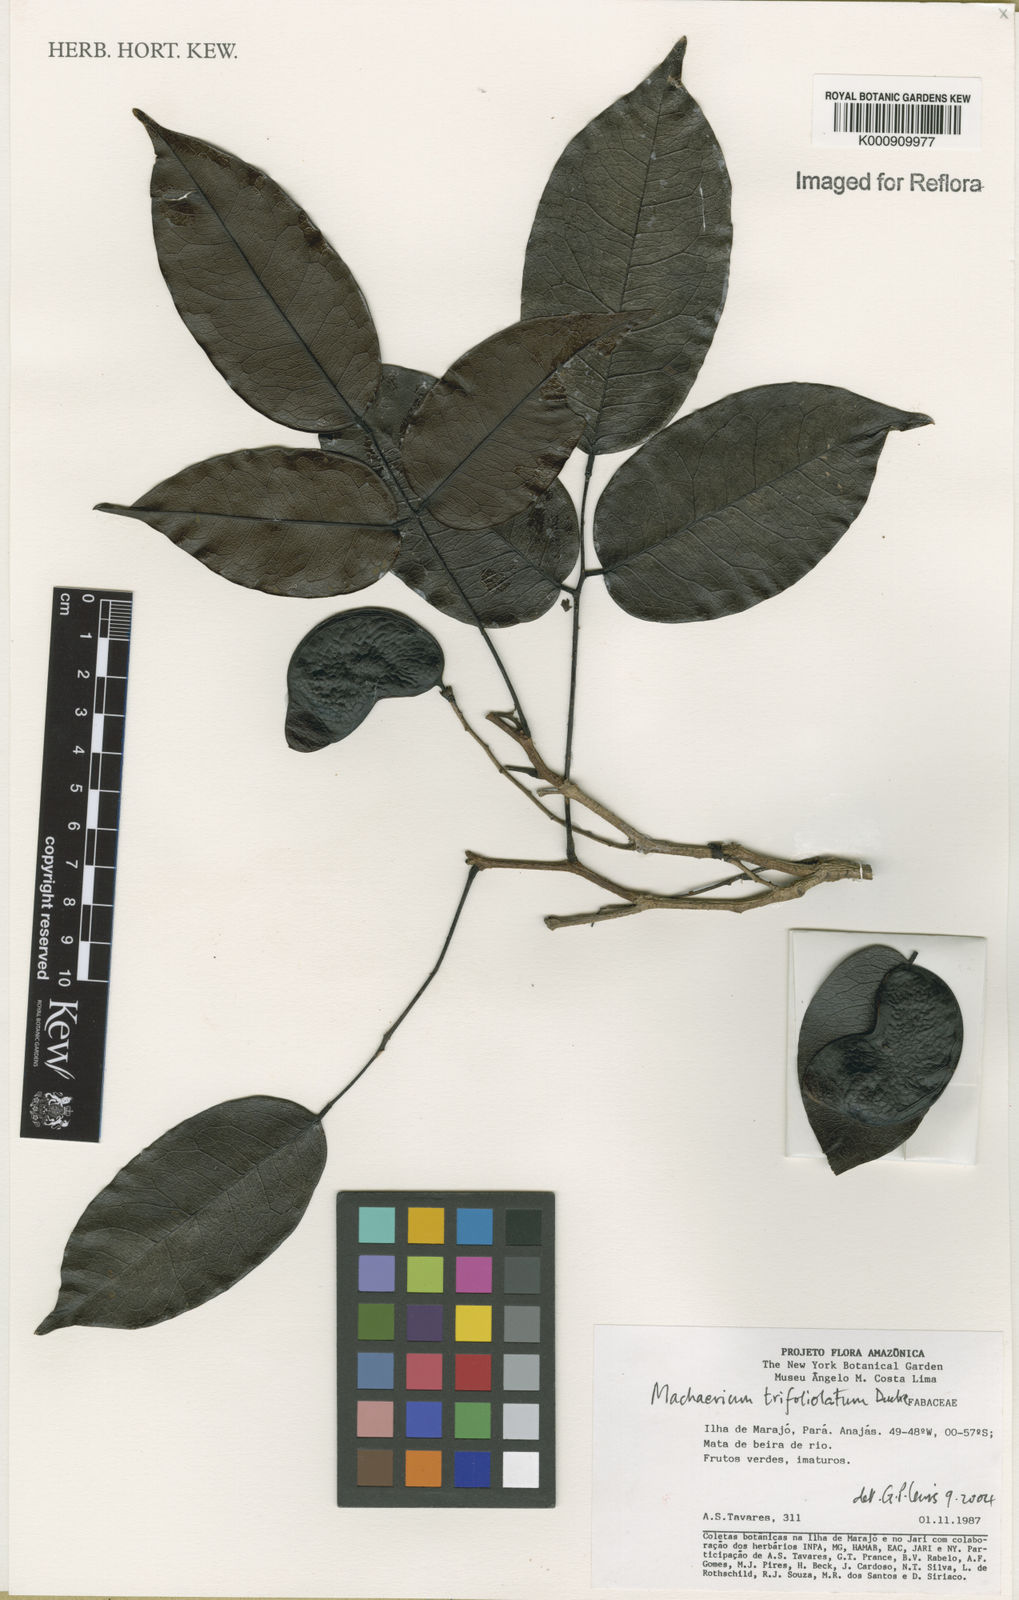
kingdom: Plantae
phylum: Tracheophyta
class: Magnoliopsida
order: Fabales
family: Fabaceae
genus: Machaerium
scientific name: Machaerium trifoliolatum
